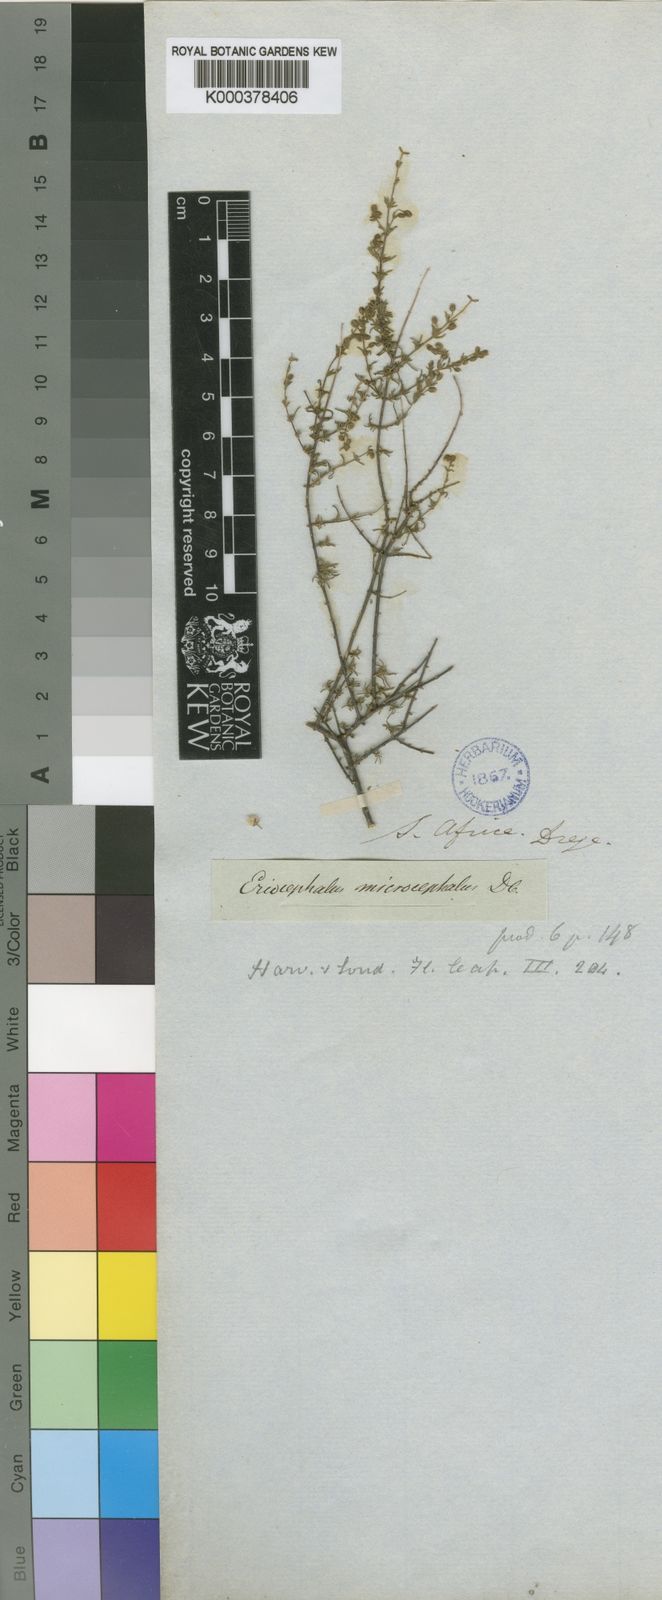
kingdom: Plantae
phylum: Tracheophyta
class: Magnoliopsida
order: Asterales
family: Asteraceae
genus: Eriocephalus
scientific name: Eriocephalus microcephalus
